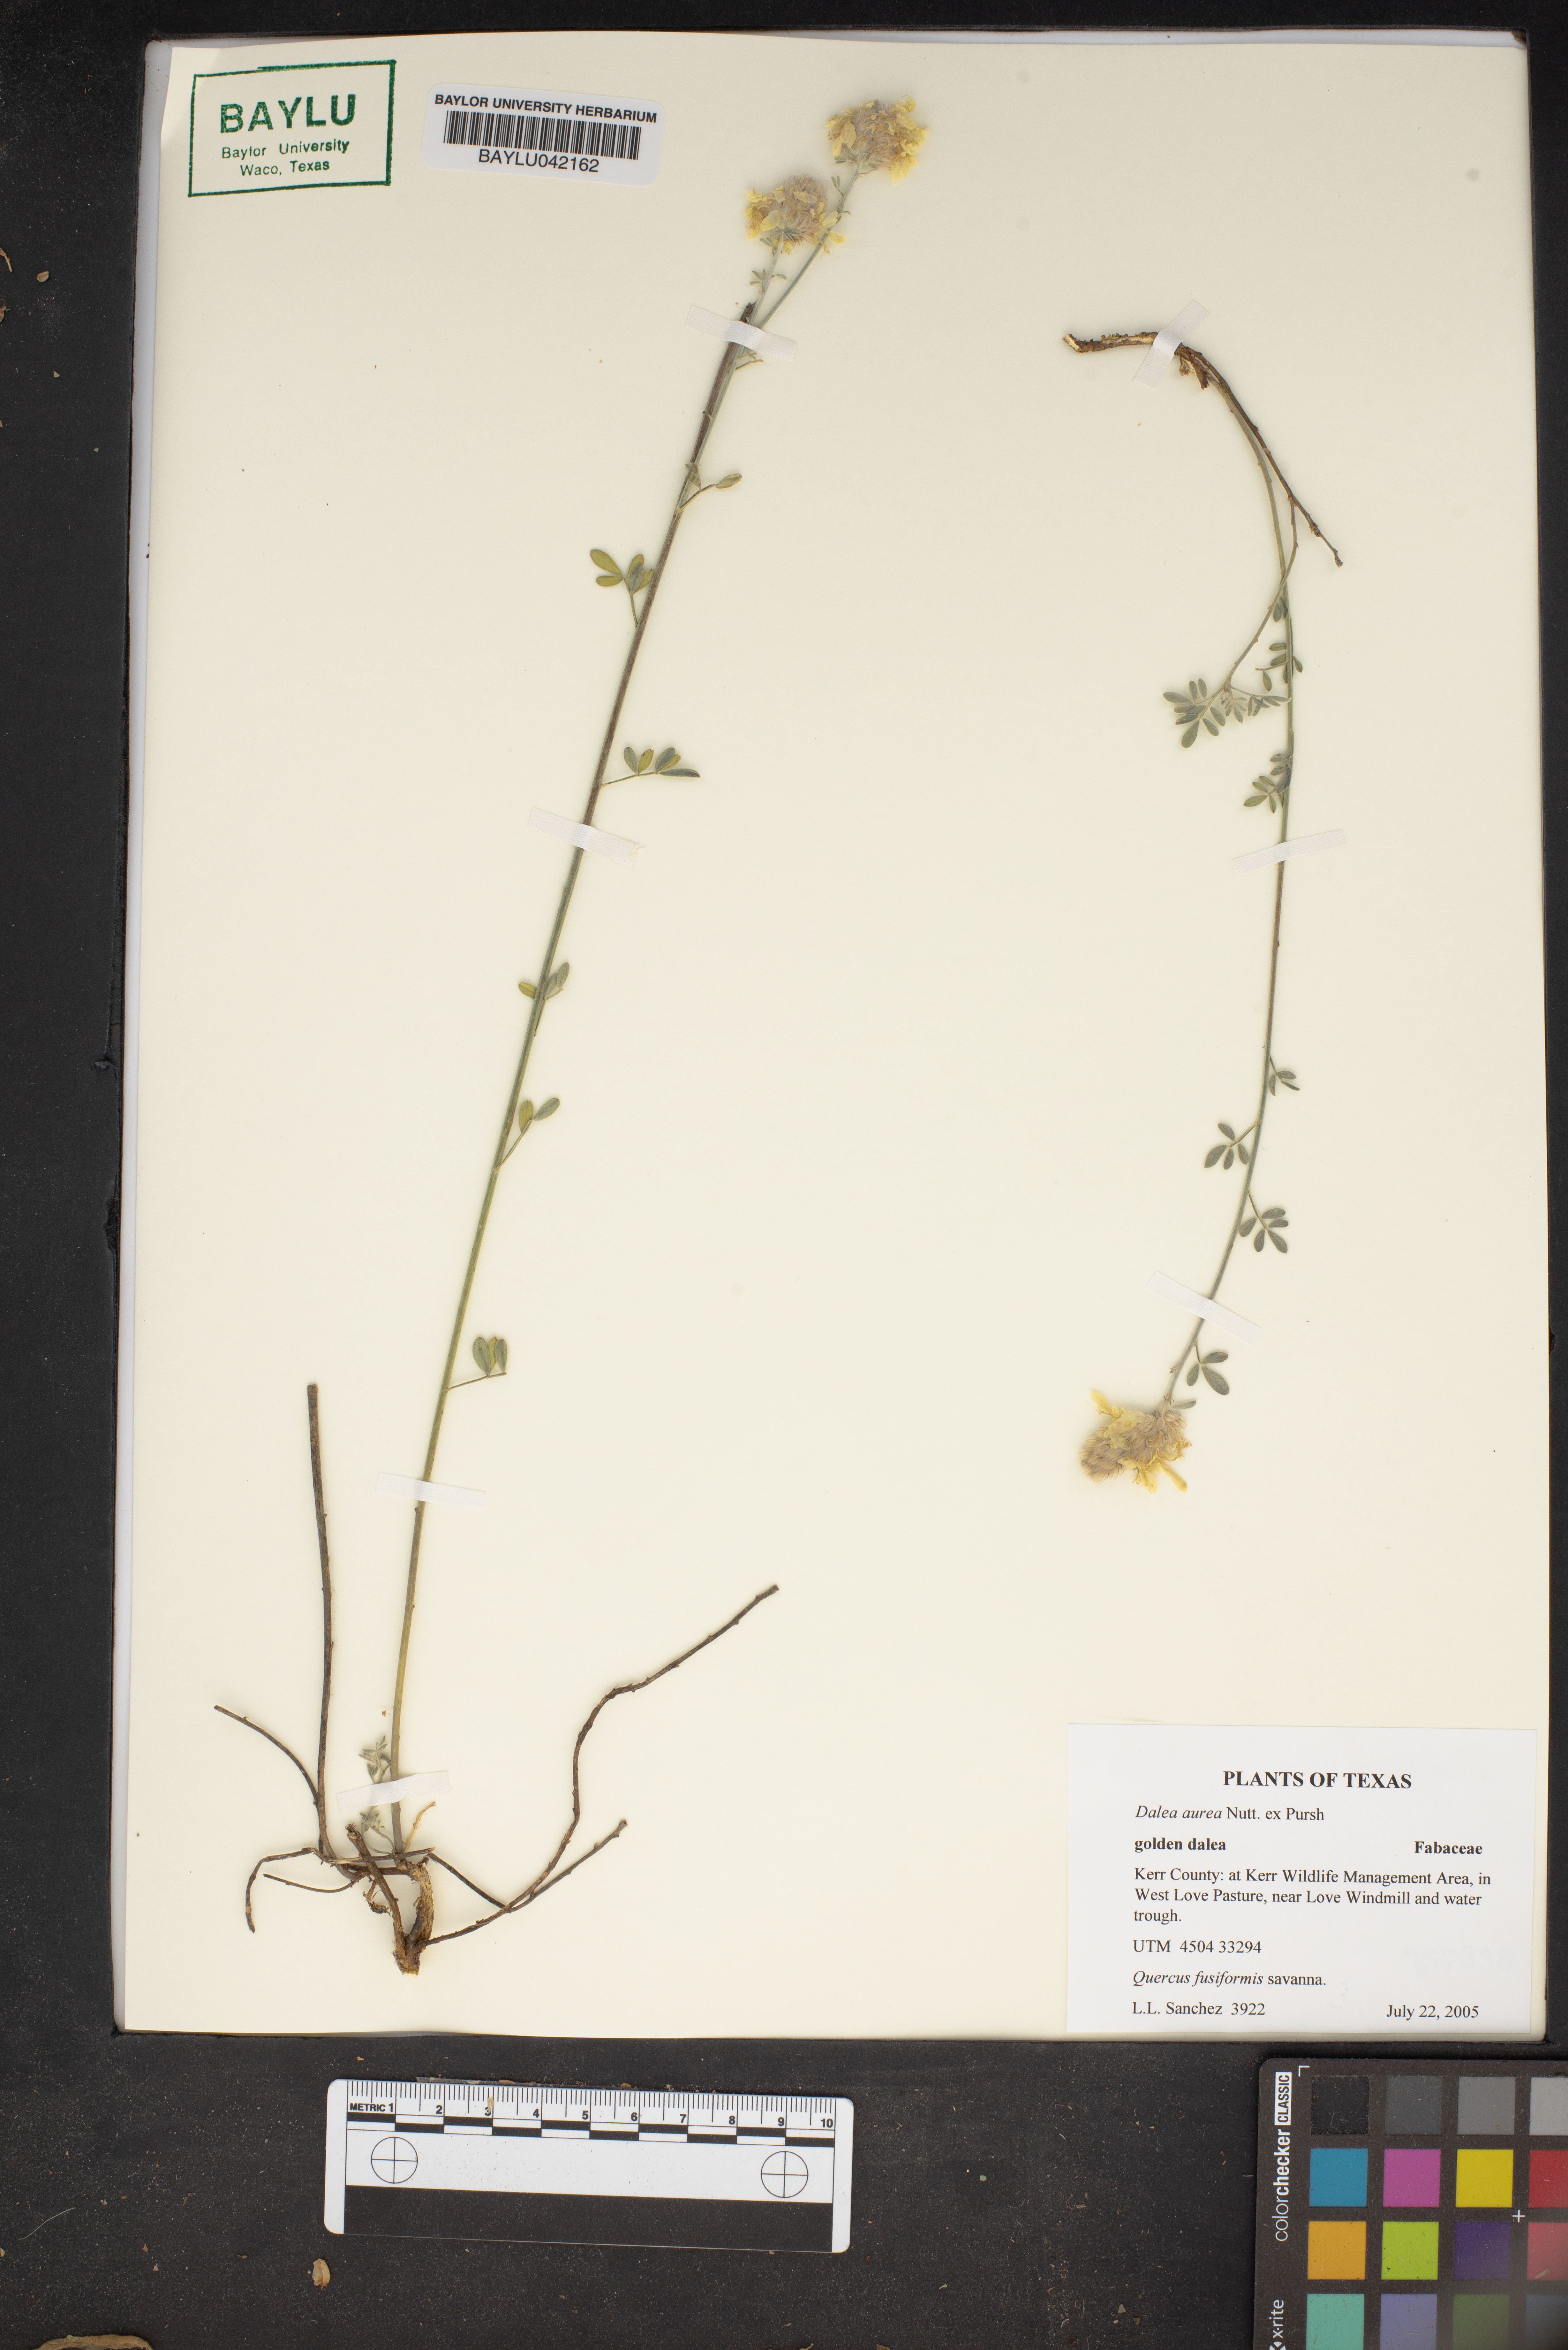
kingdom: Plantae
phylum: Tracheophyta
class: Magnoliopsida
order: Fabales
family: Fabaceae
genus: Dalea
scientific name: Dalea aurea
